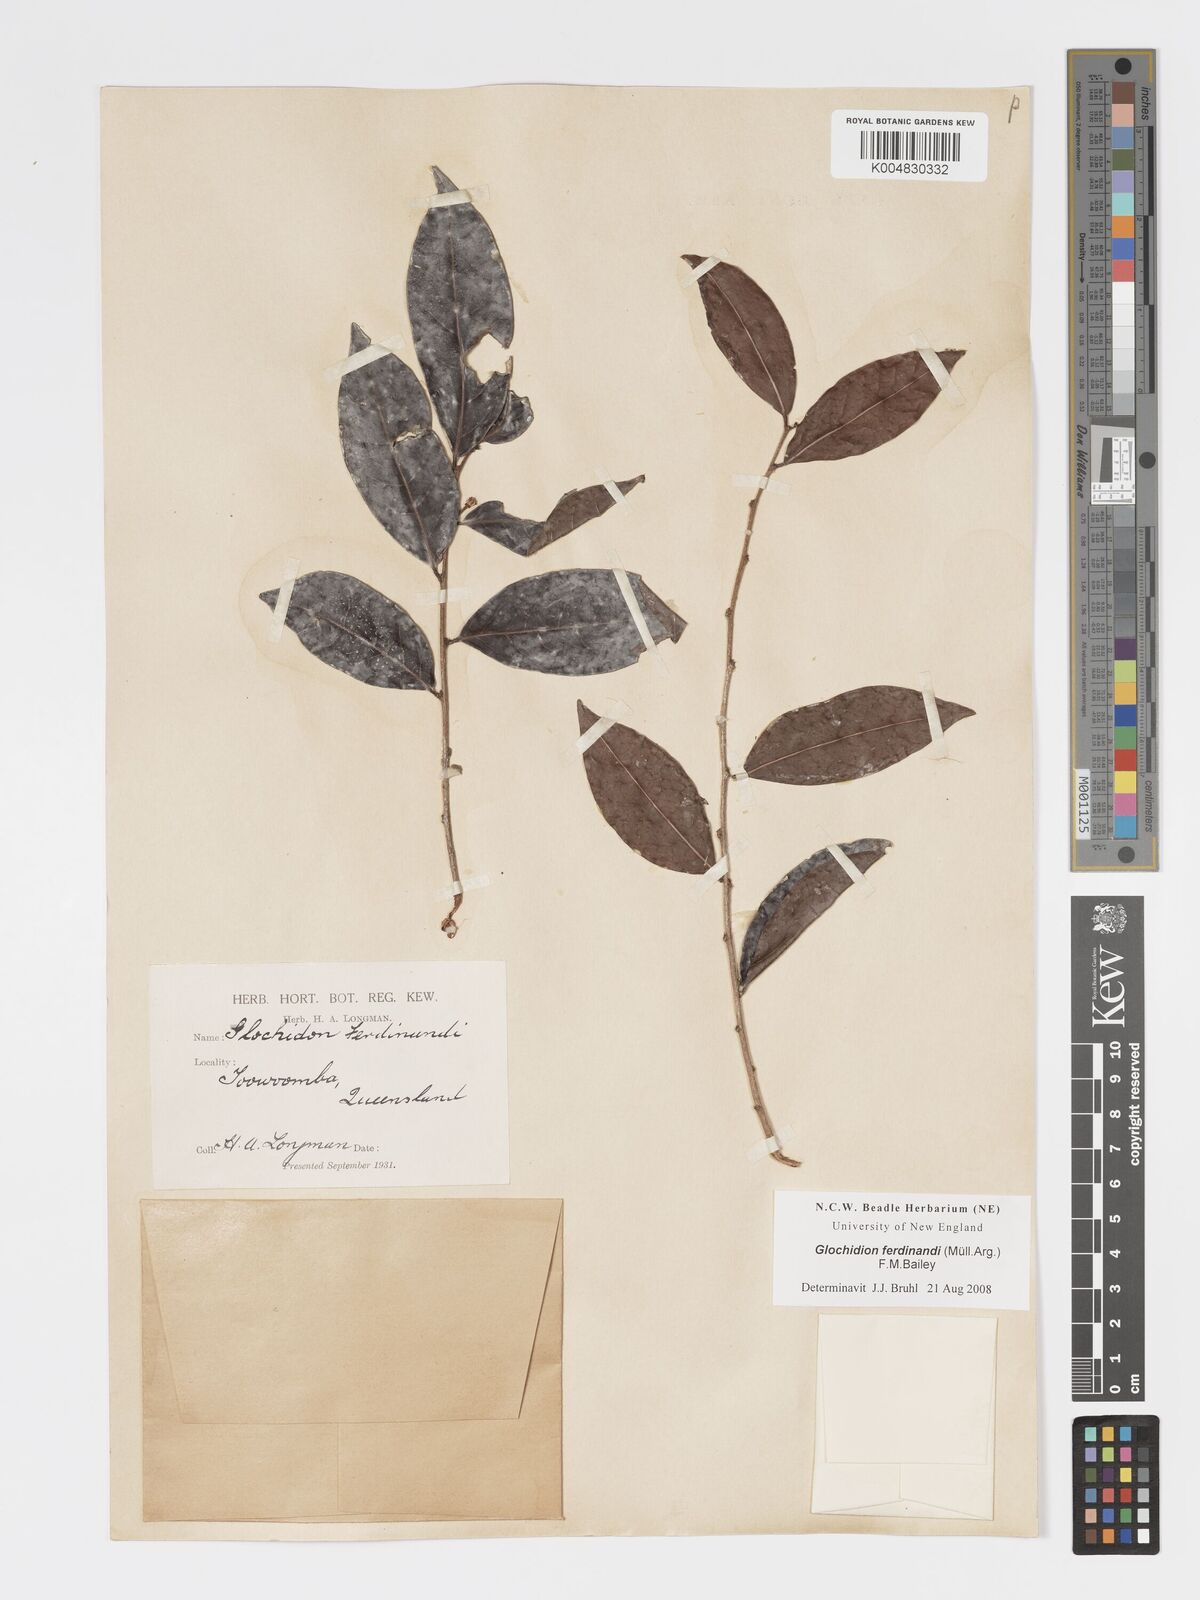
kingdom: Plantae
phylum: Tracheophyta
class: Magnoliopsida
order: Malpighiales
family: Phyllanthaceae
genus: Glochidion
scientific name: Glochidion ferdinandi
